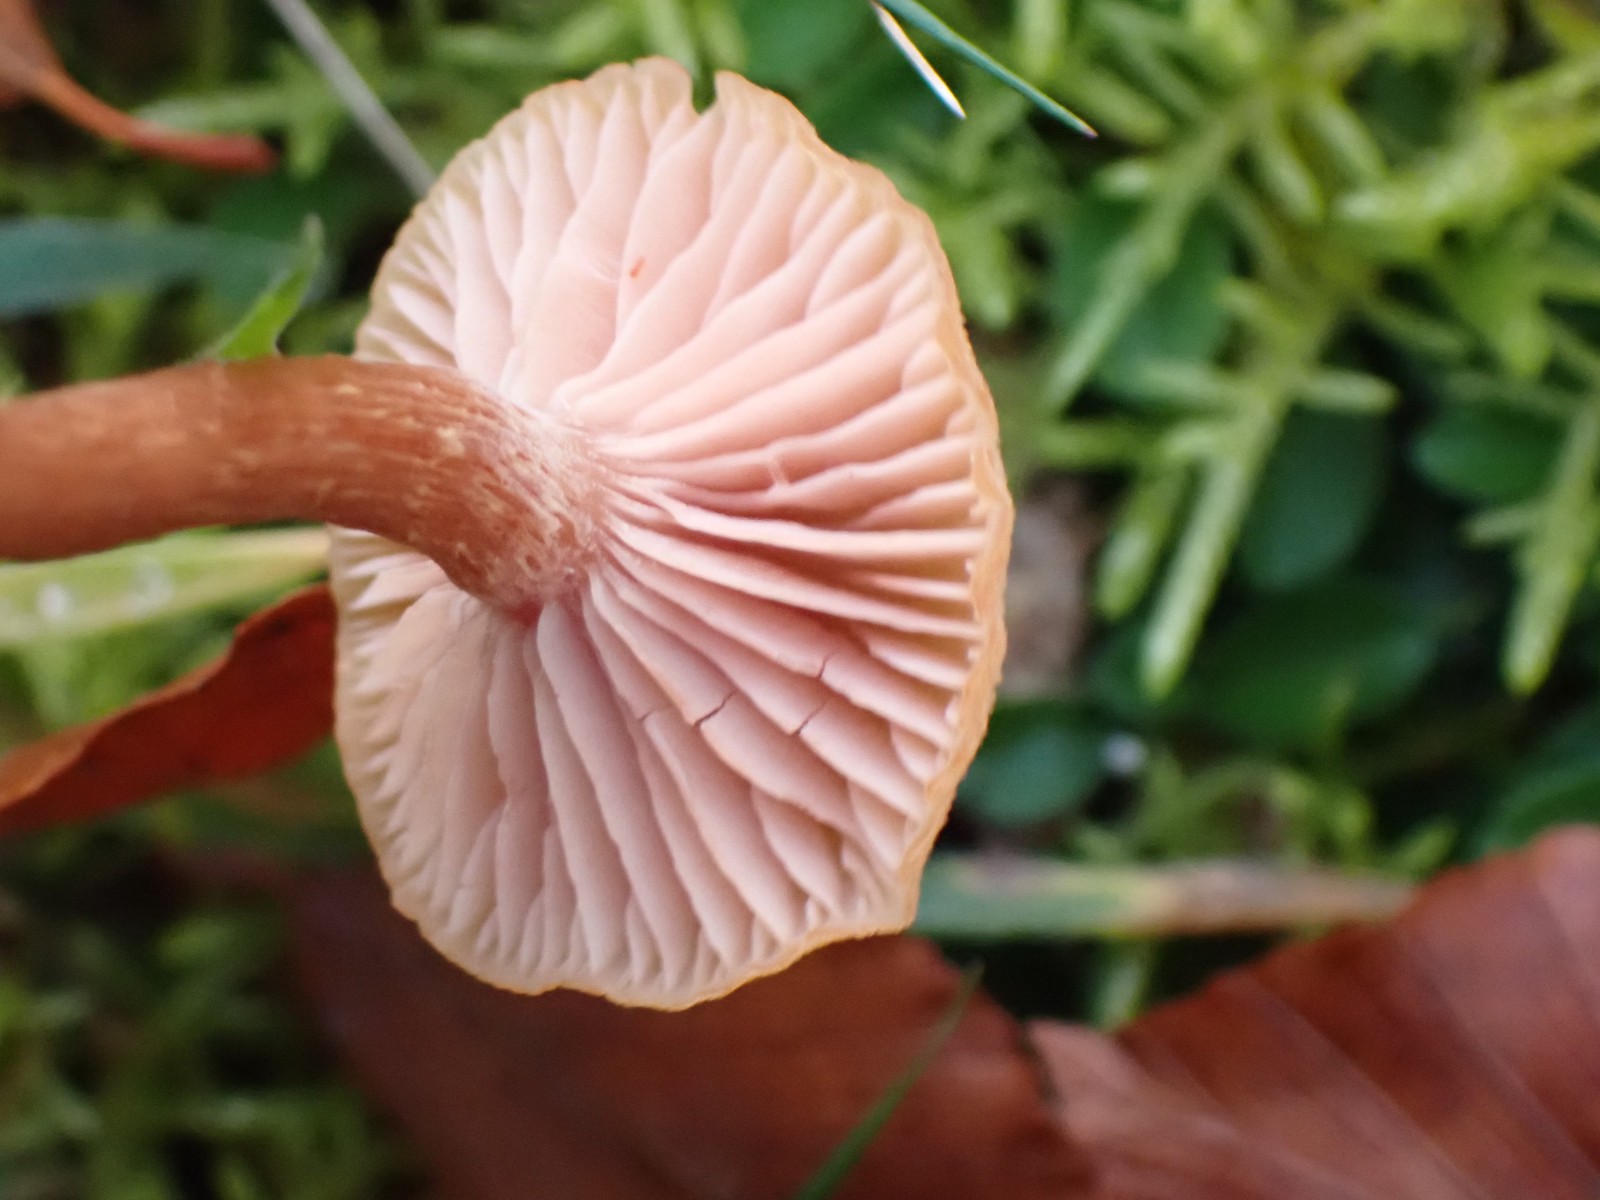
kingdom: Fungi
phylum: Basidiomycota
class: Agaricomycetes
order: Agaricales
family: Hydnangiaceae
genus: Laccaria
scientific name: Laccaria laccata
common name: rød ametysthat
